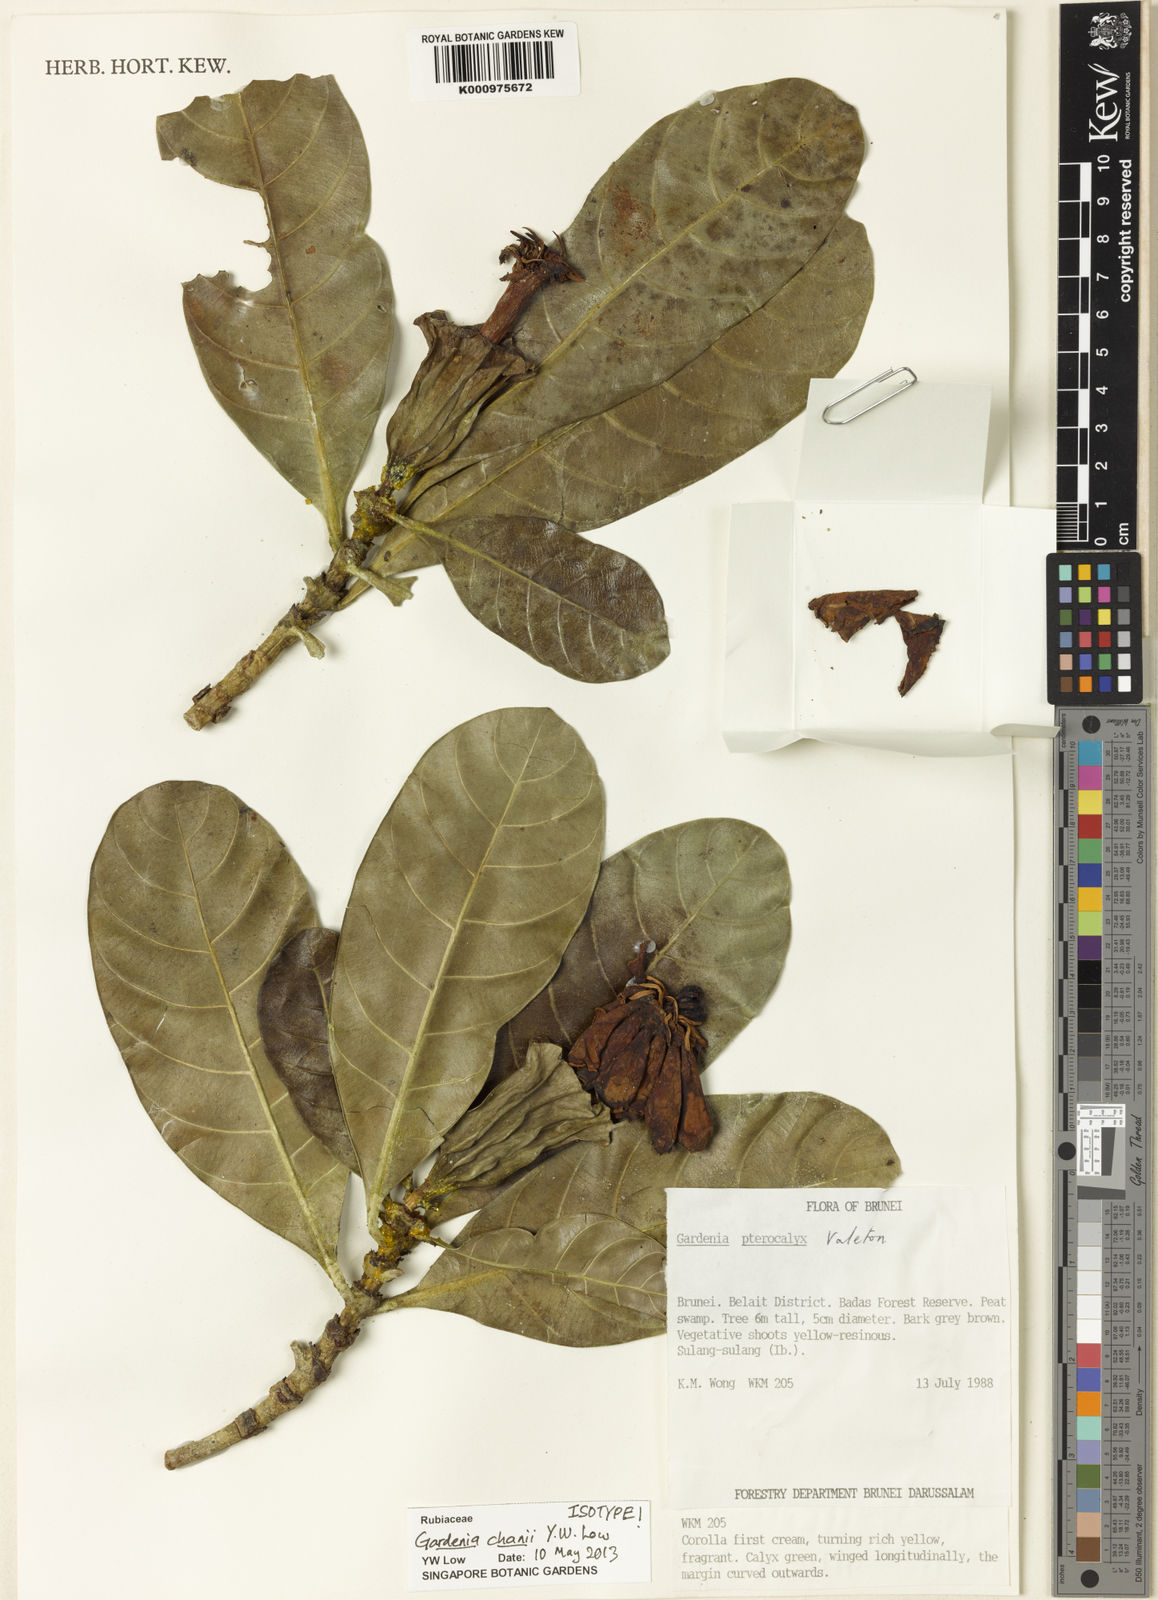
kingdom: Plantae
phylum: Tracheophyta
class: Magnoliopsida
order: Gentianales
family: Rubiaceae
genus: Gardenia
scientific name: Gardenia chanii
